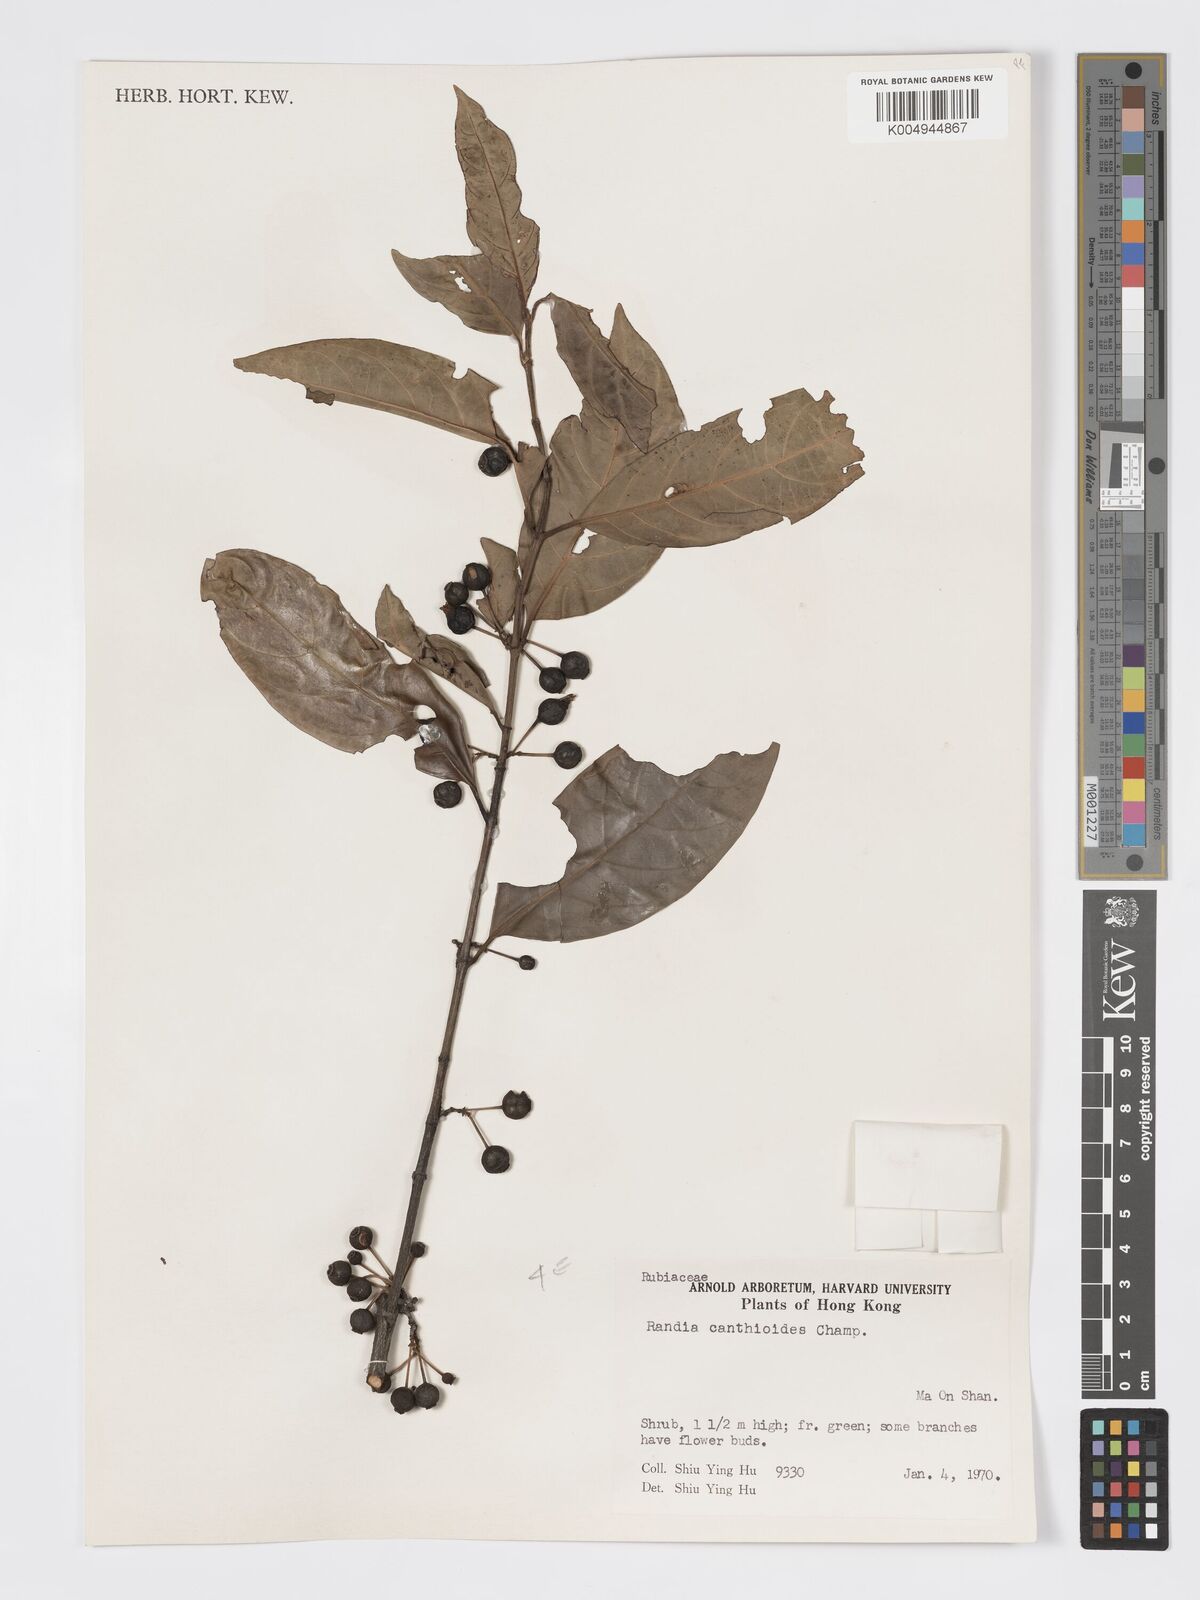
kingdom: Plantae
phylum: Tracheophyta
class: Magnoliopsida
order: Gentianales
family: Rubiaceae
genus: Aidia
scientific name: Aidia canthioides
